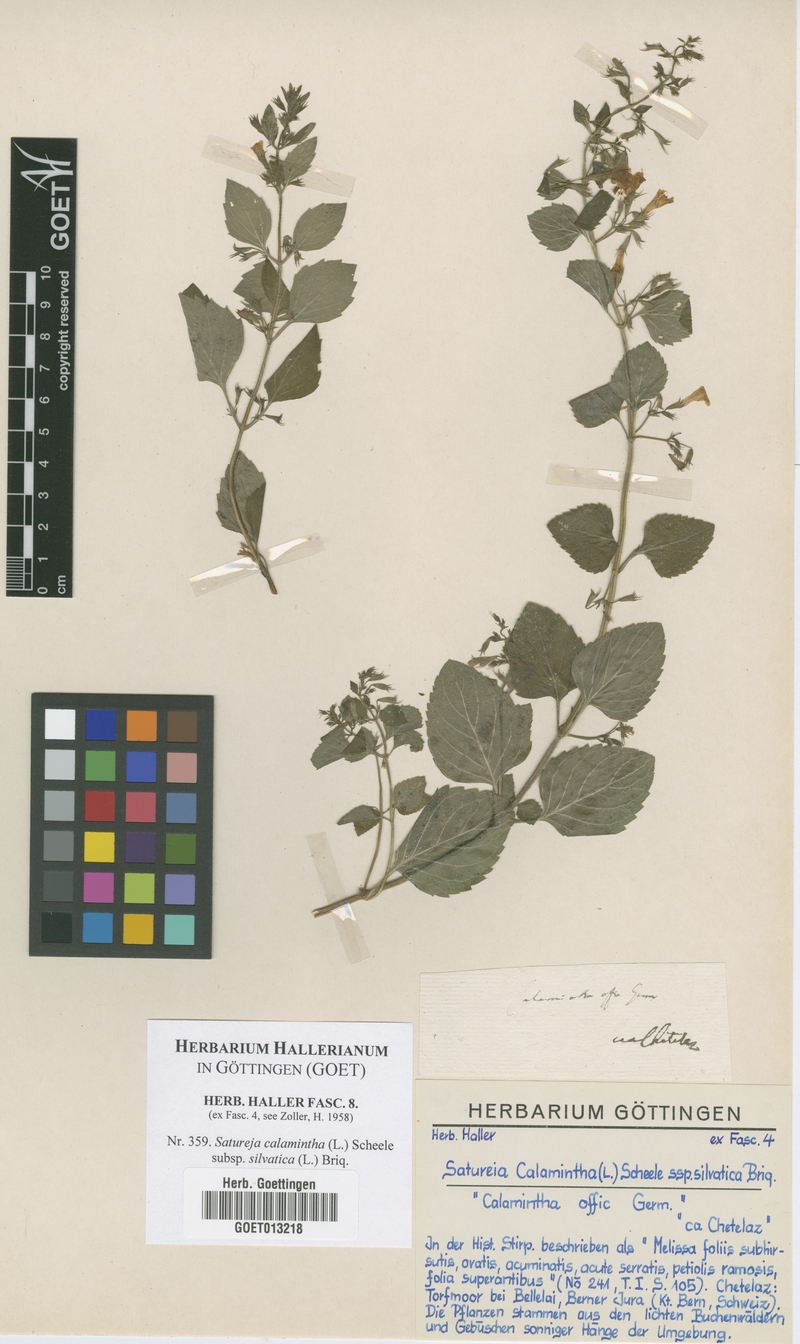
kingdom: Plantae
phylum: Tracheophyta
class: Magnoliopsida
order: Lamiales
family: Lamiaceae
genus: Clinopodium
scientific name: Clinopodium menthifolium
